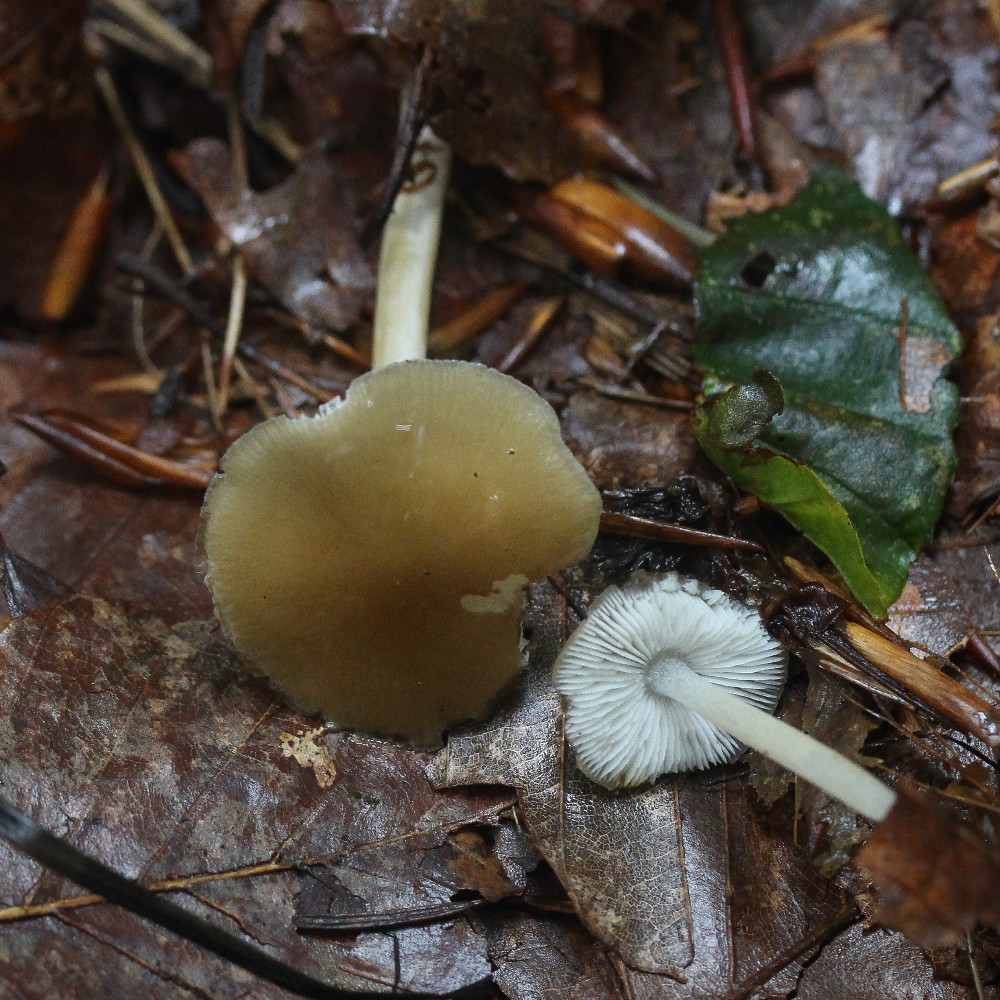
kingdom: Fungi
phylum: Basidiomycota
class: Agaricomycetes
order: Agaricales
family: Porotheleaceae
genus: Hydropodia
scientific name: Hydropodia subalpina
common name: vår-fnugfod
